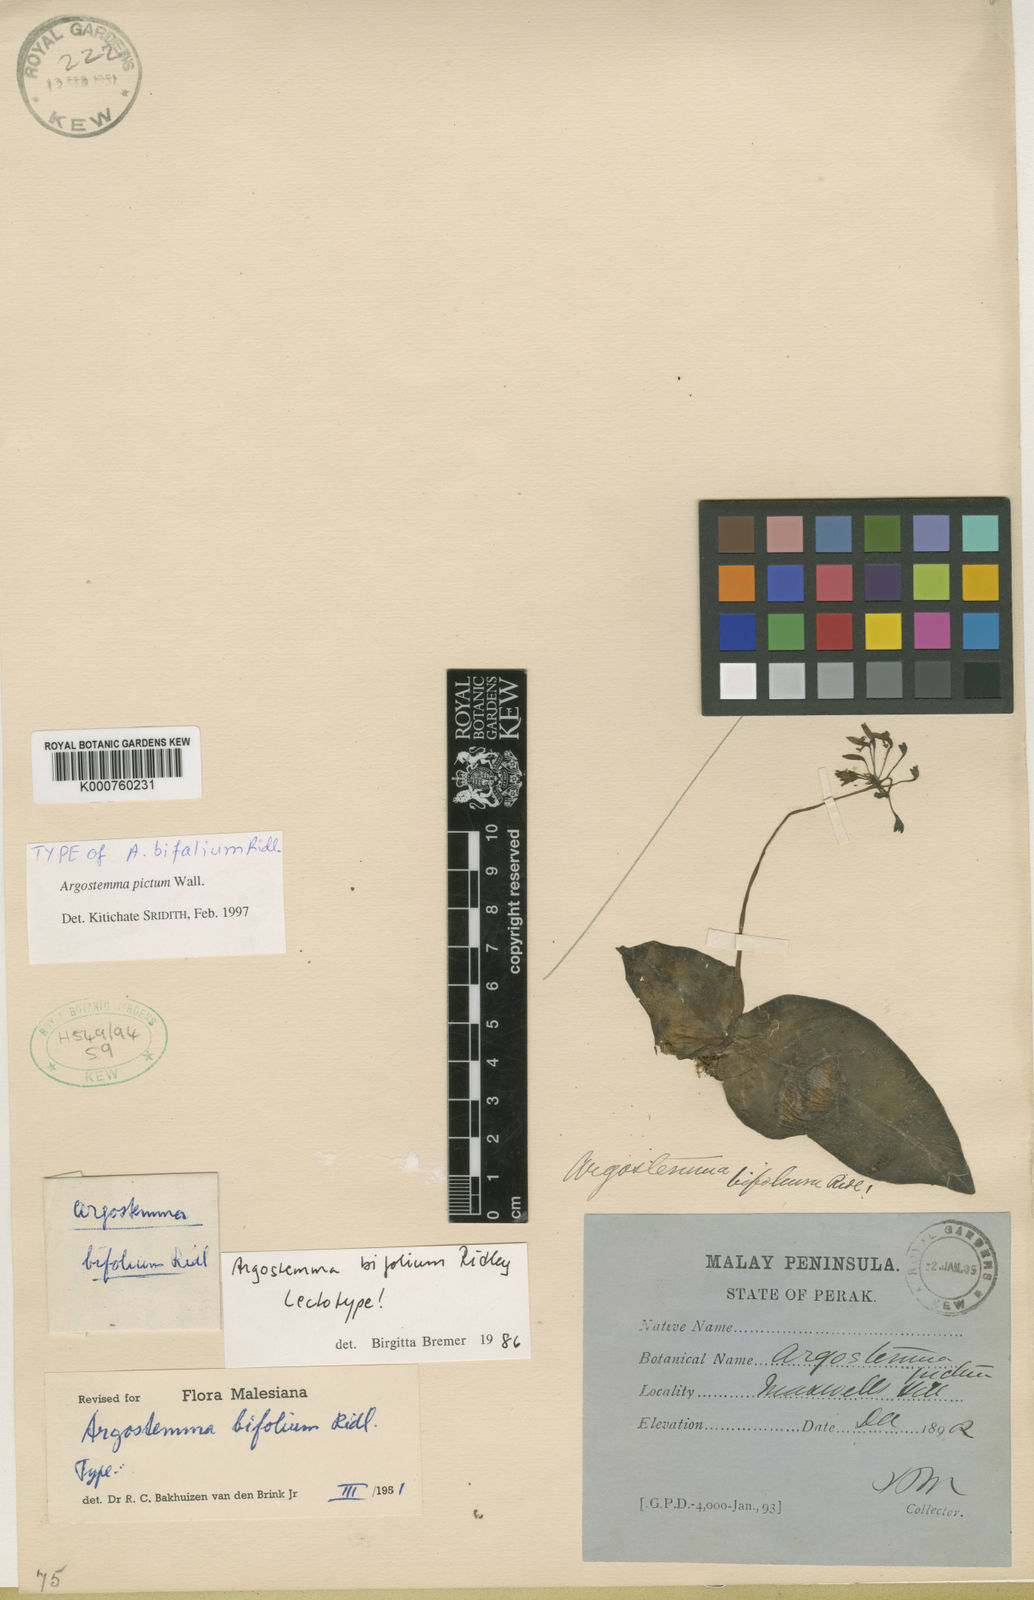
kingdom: Plantae
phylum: Tracheophyta
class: Magnoliopsida
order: Gentianales
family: Rubiaceae
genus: Argostemma
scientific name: Argostemma pictum
